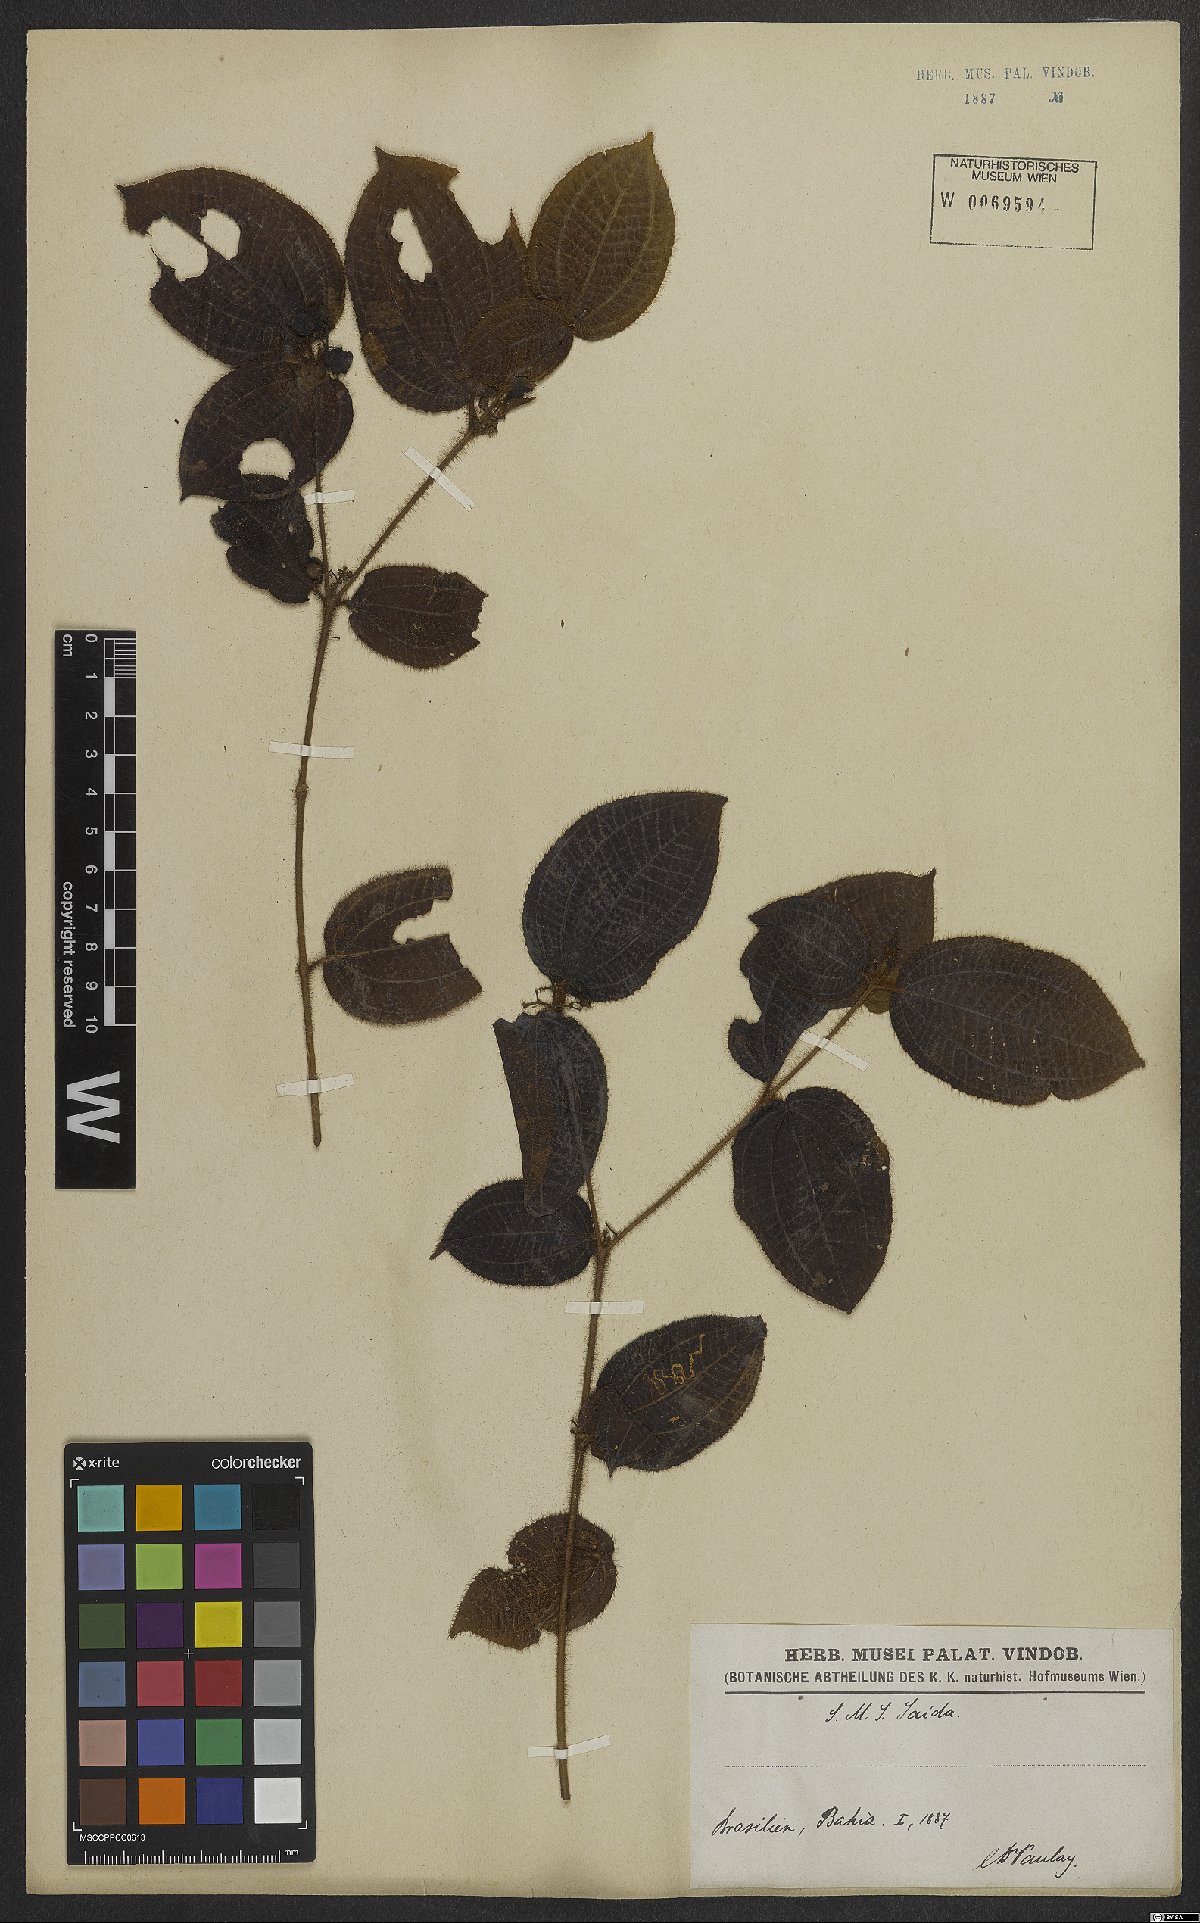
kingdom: Plantae
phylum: Tracheophyta
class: Magnoliopsida
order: Myrtales
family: Melastomataceae
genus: Miconia
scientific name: Miconia crenata
